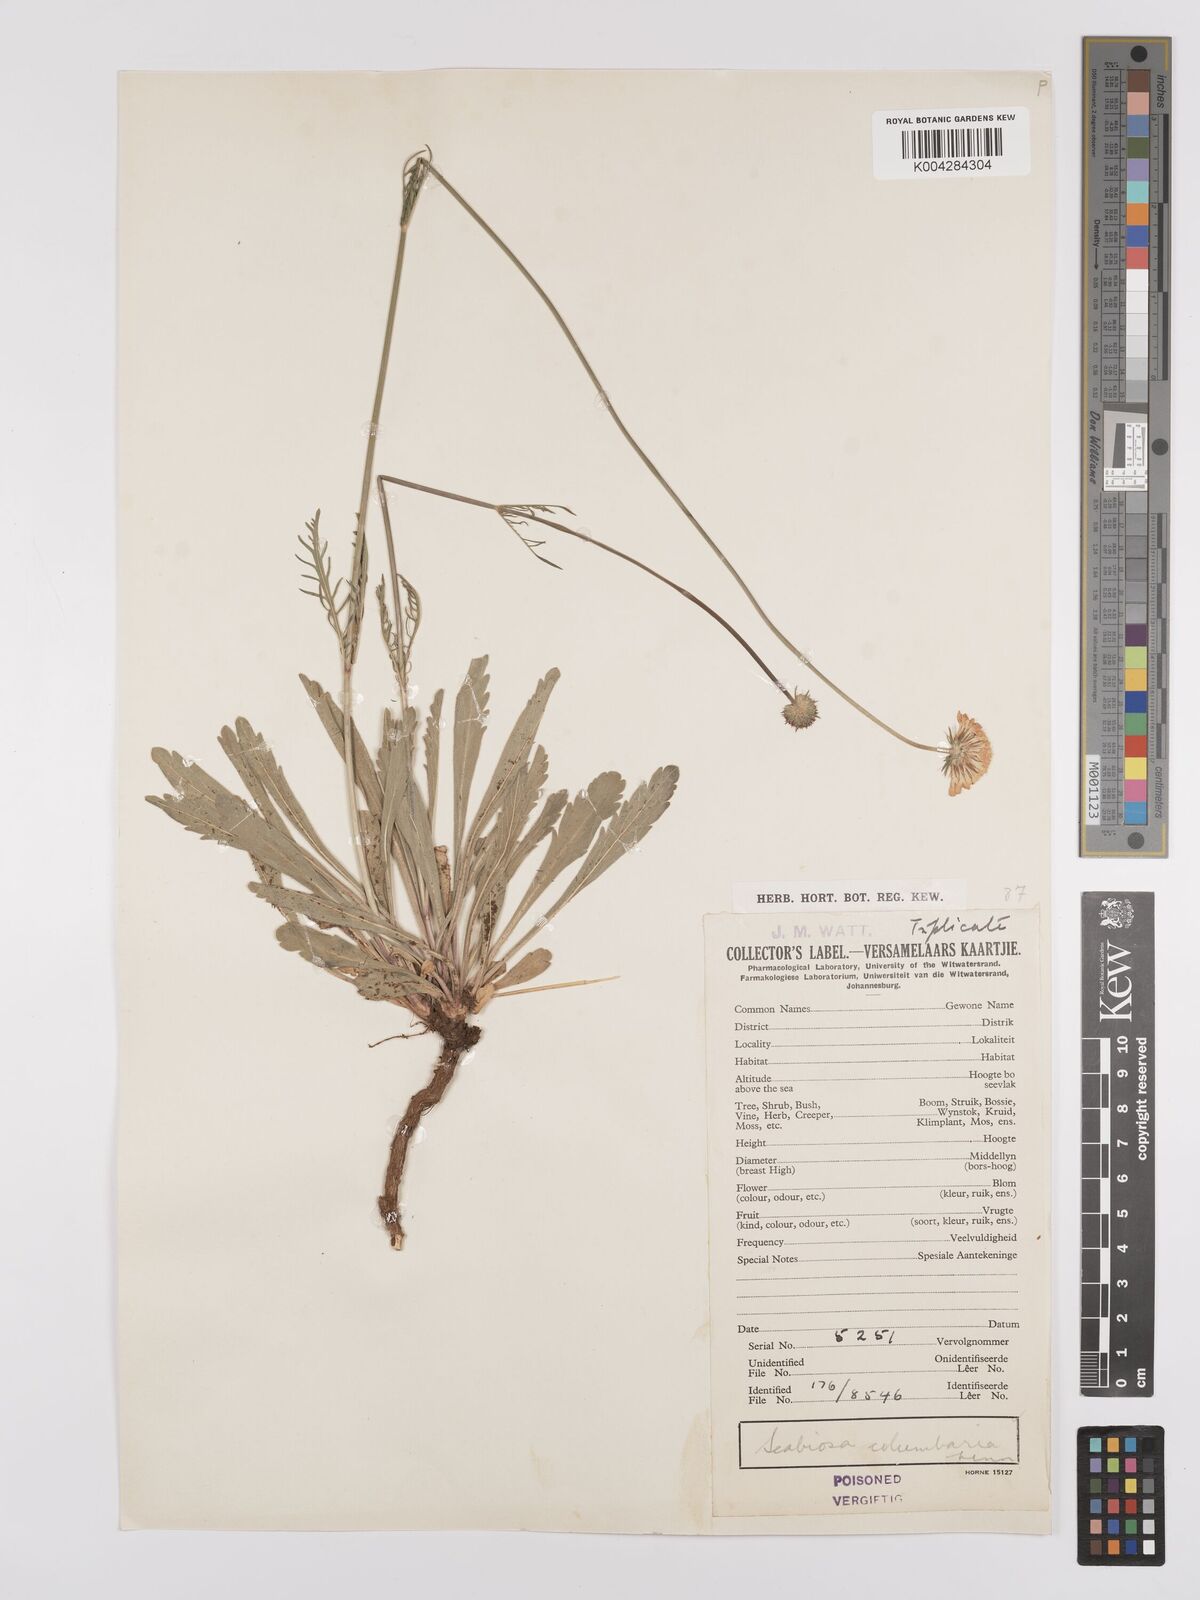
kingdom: Plantae
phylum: Tracheophyta
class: Magnoliopsida
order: Dipsacales
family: Caprifoliaceae
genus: Scabiosa
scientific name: Scabiosa austroafricana
